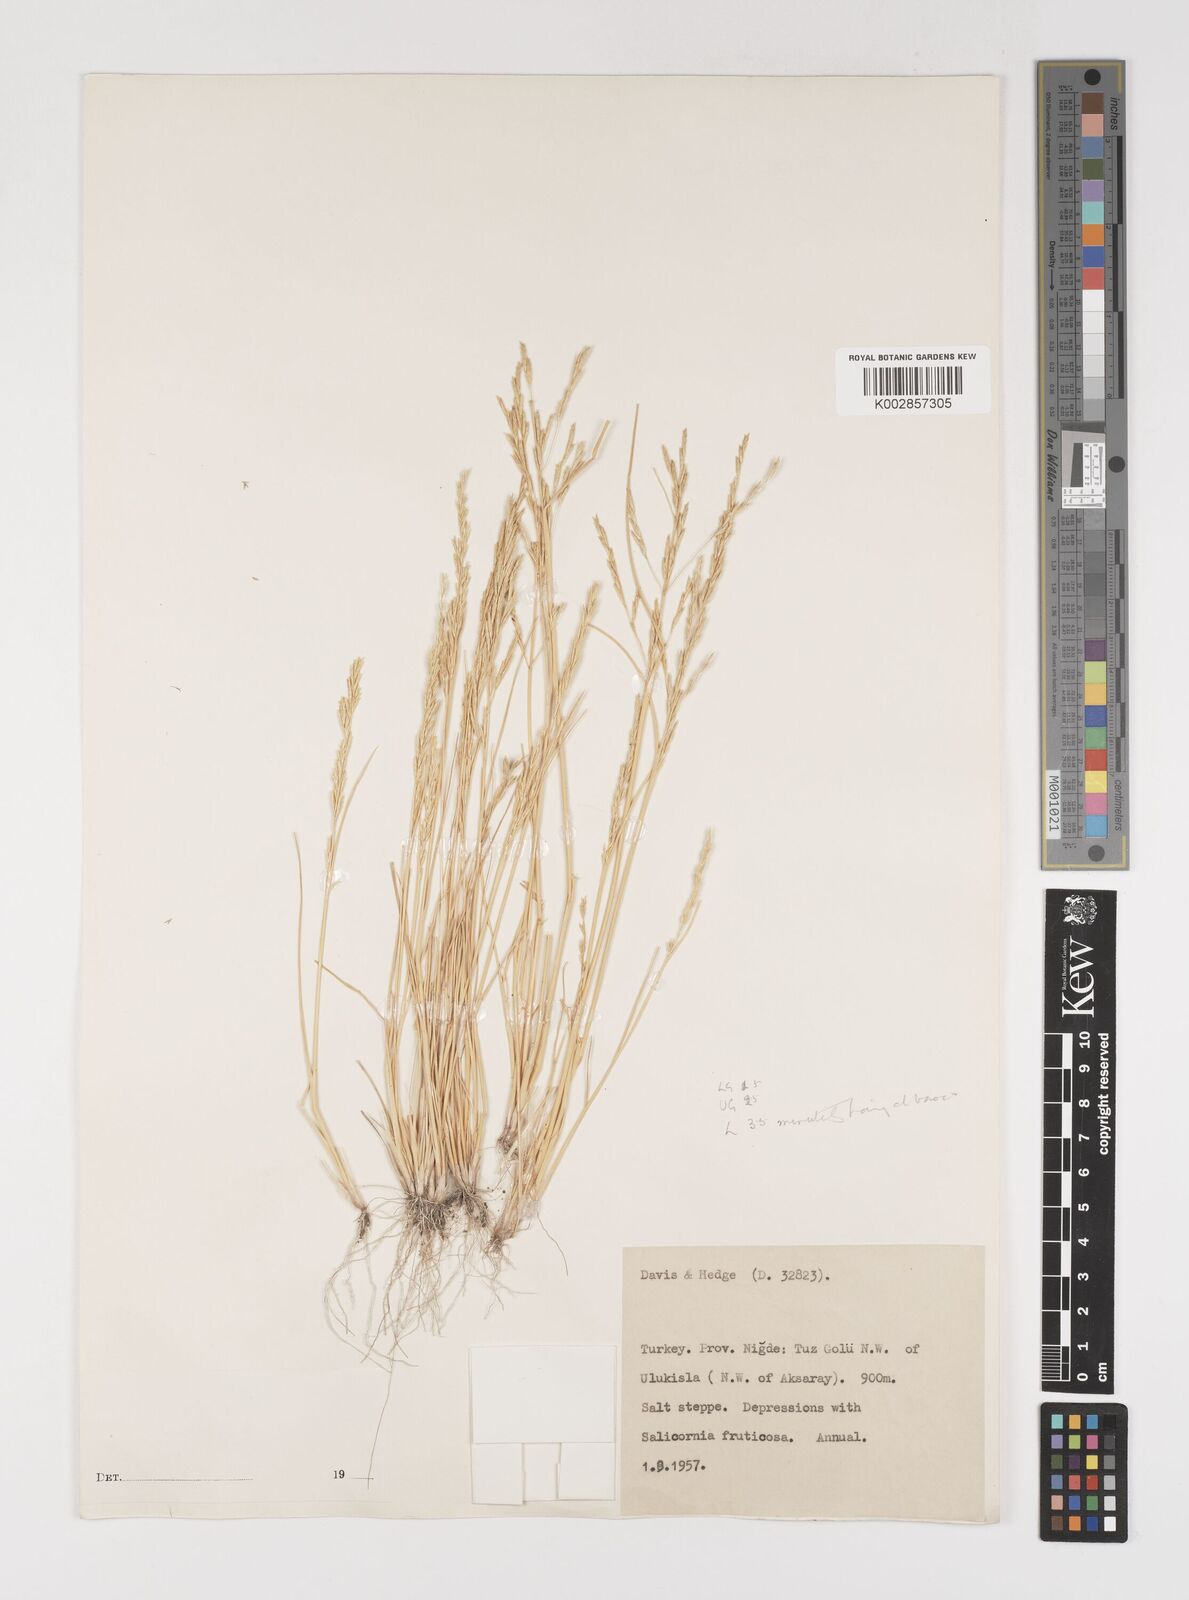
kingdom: Plantae
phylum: Tracheophyta
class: Liliopsida
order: Poales
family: Poaceae
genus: Puccinellia
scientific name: Puccinellia
